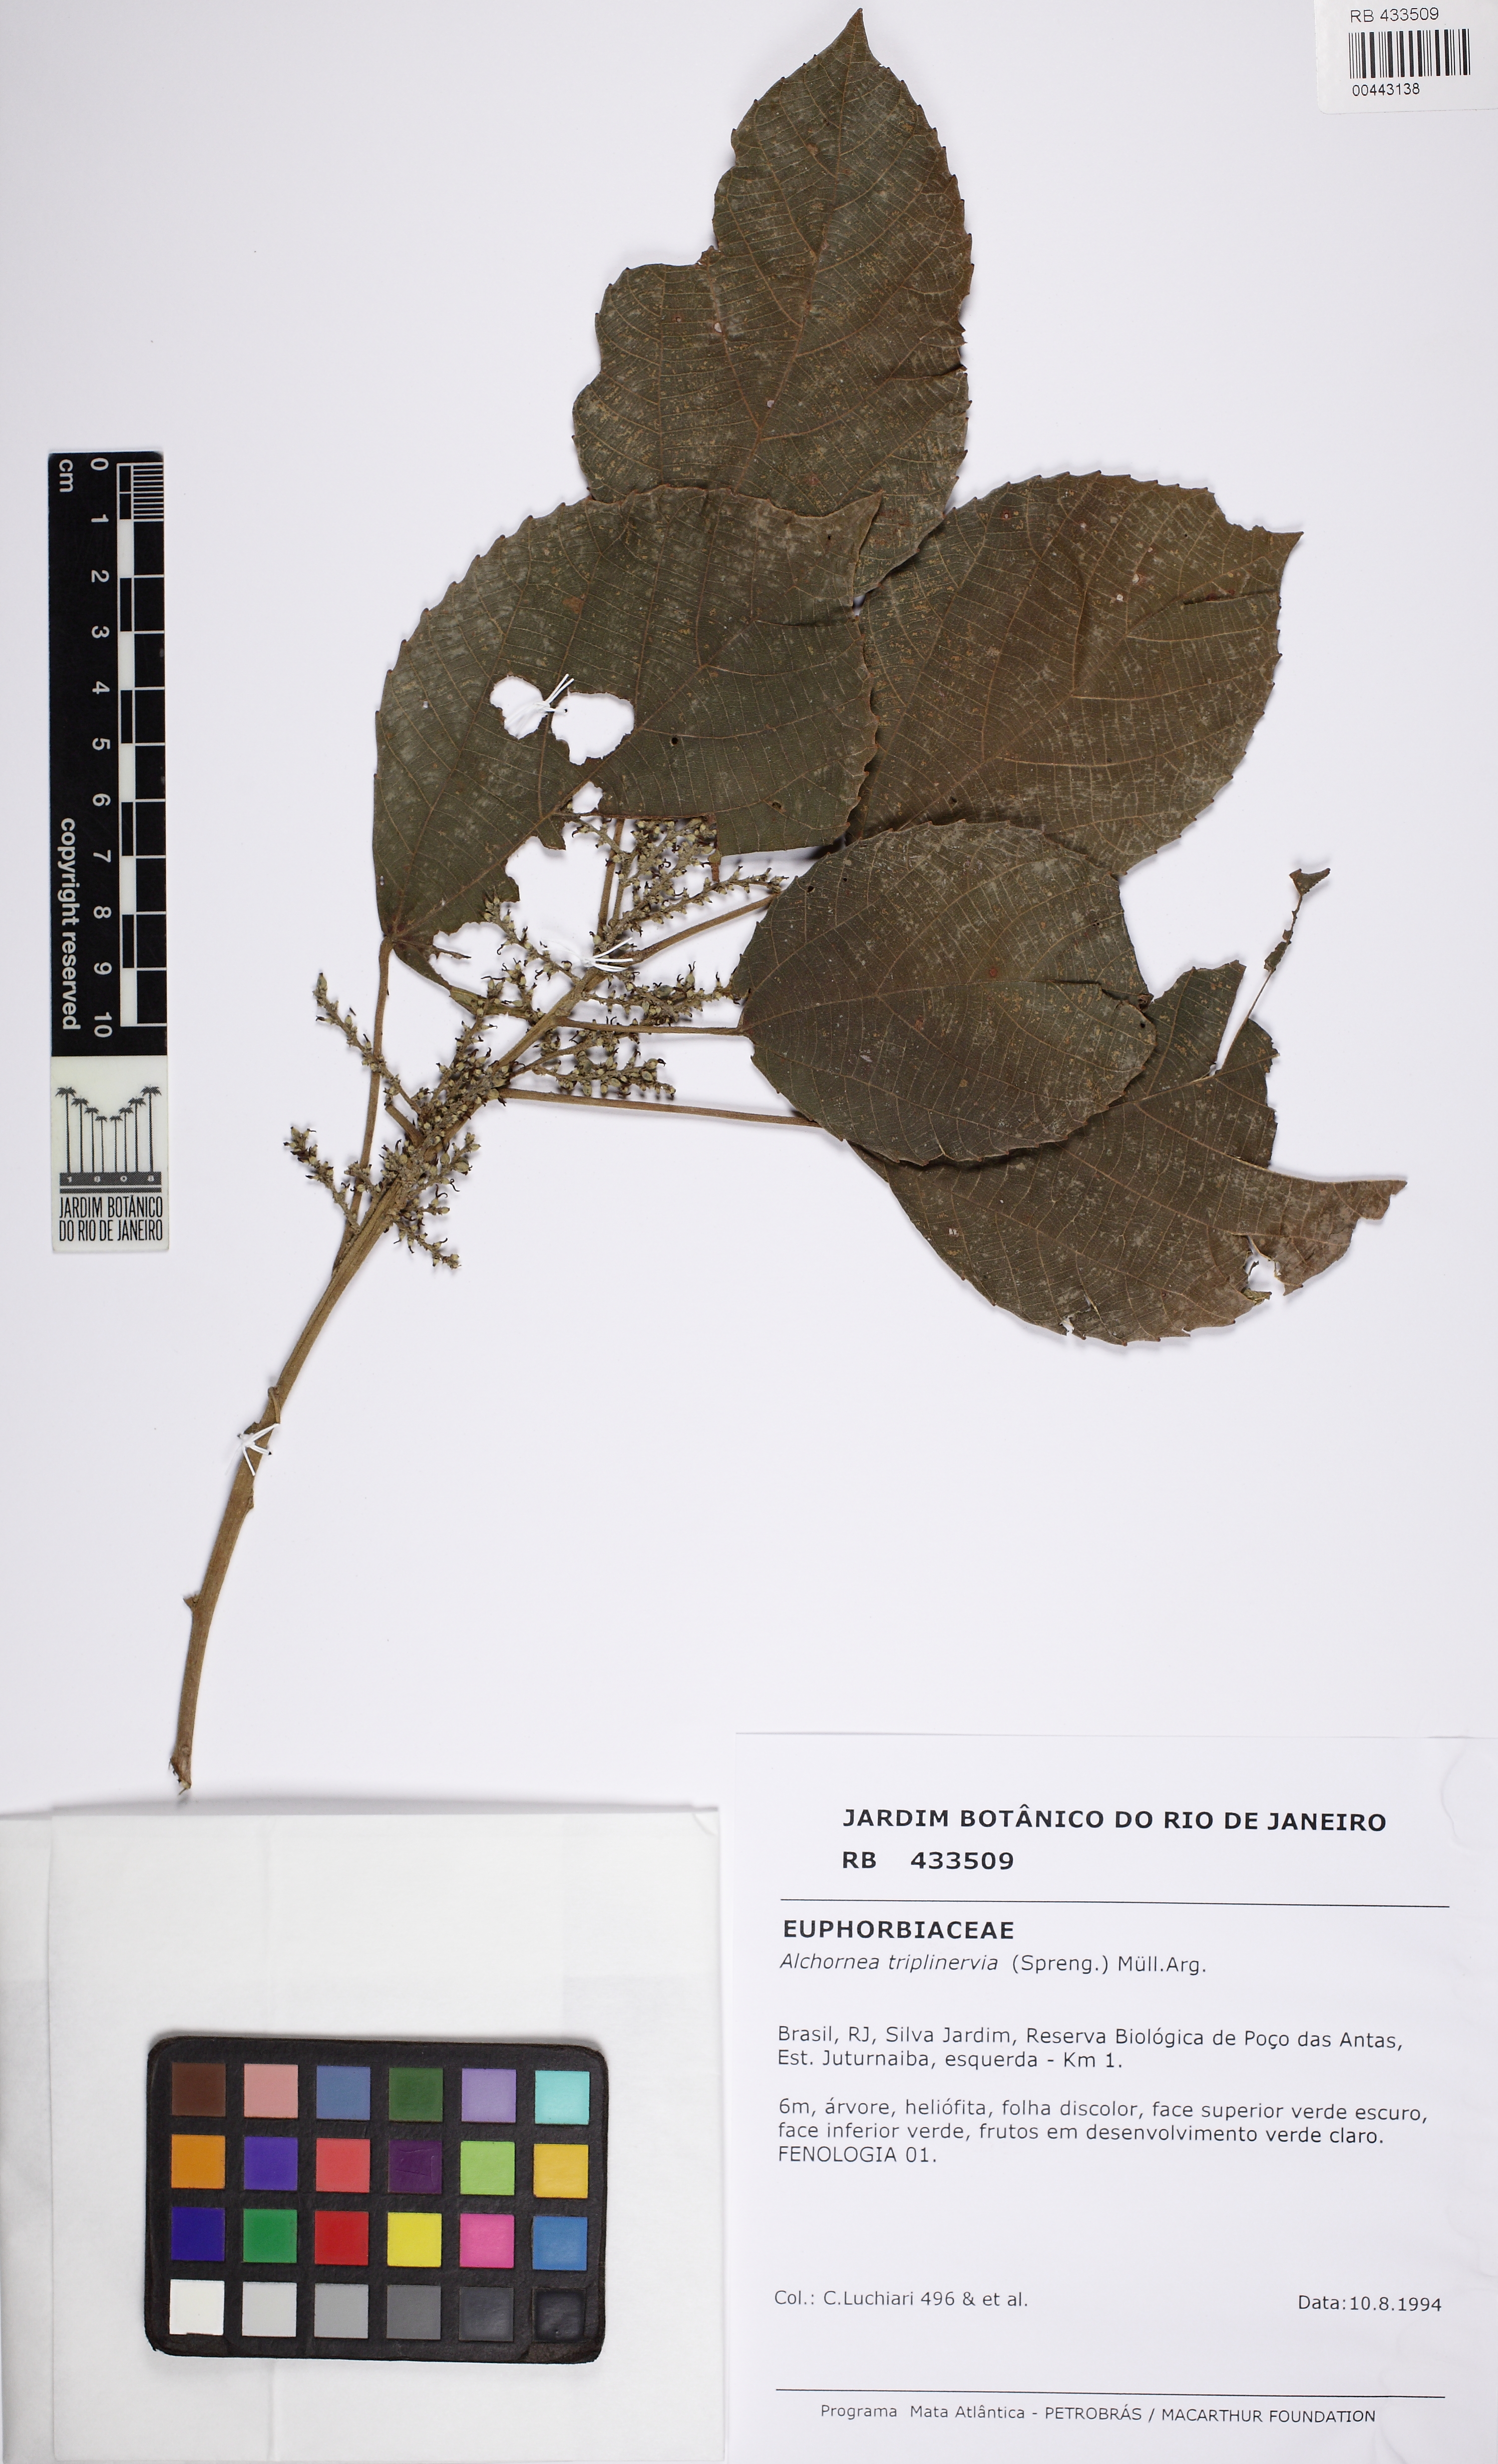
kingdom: Plantae
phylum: Tracheophyta
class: Magnoliopsida
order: Malpighiales
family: Euphorbiaceae
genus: Alchornea
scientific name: Alchornea triplinervia
